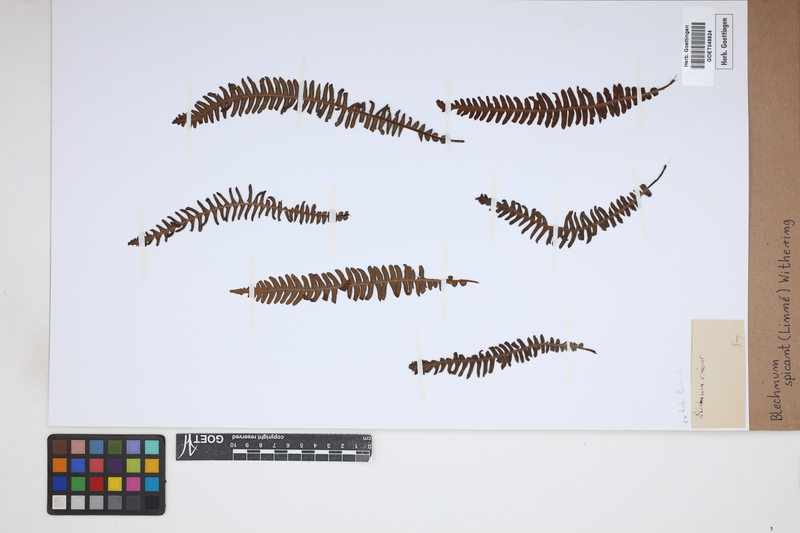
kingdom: Plantae
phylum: Tracheophyta
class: Polypodiopsida
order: Polypodiales
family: Blechnaceae
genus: Struthiopteris
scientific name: Struthiopteris spicant
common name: Deer fern
